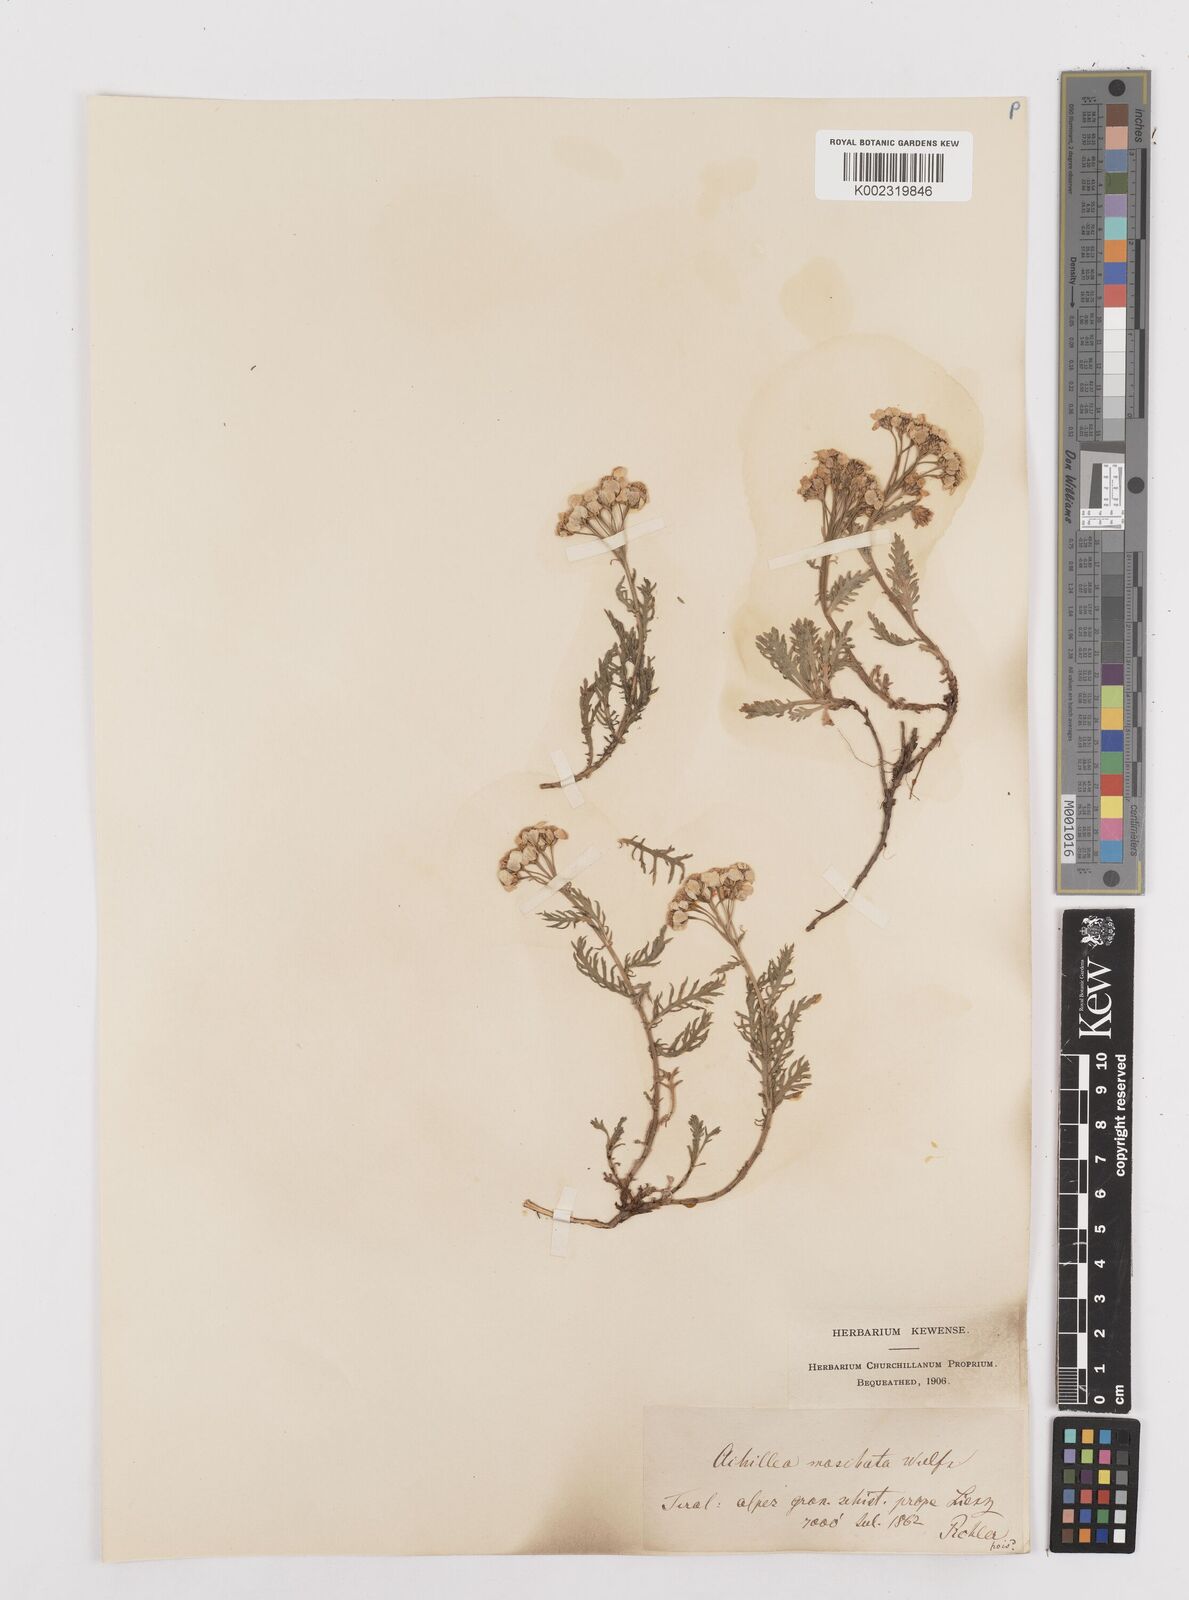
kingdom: Plantae
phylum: Tracheophyta
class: Magnoliopsida
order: Asterales
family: Asteraceae
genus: Achillea
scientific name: Achillea erba-rotta
